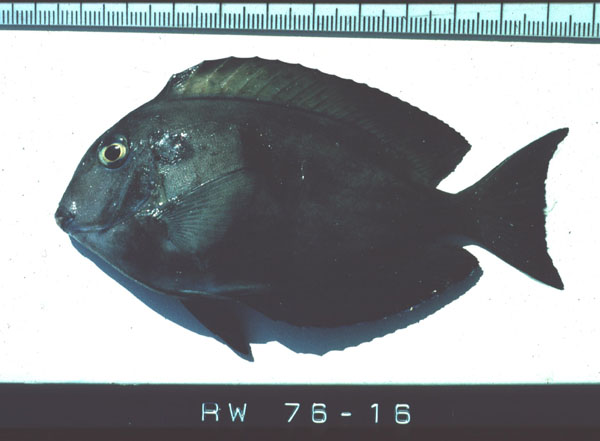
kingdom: Animalia
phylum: Chordata
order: Perciformes
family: Acanthuridae
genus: Acanthurus
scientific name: Acanthurus tennentii
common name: Doubleband surgeonfish
